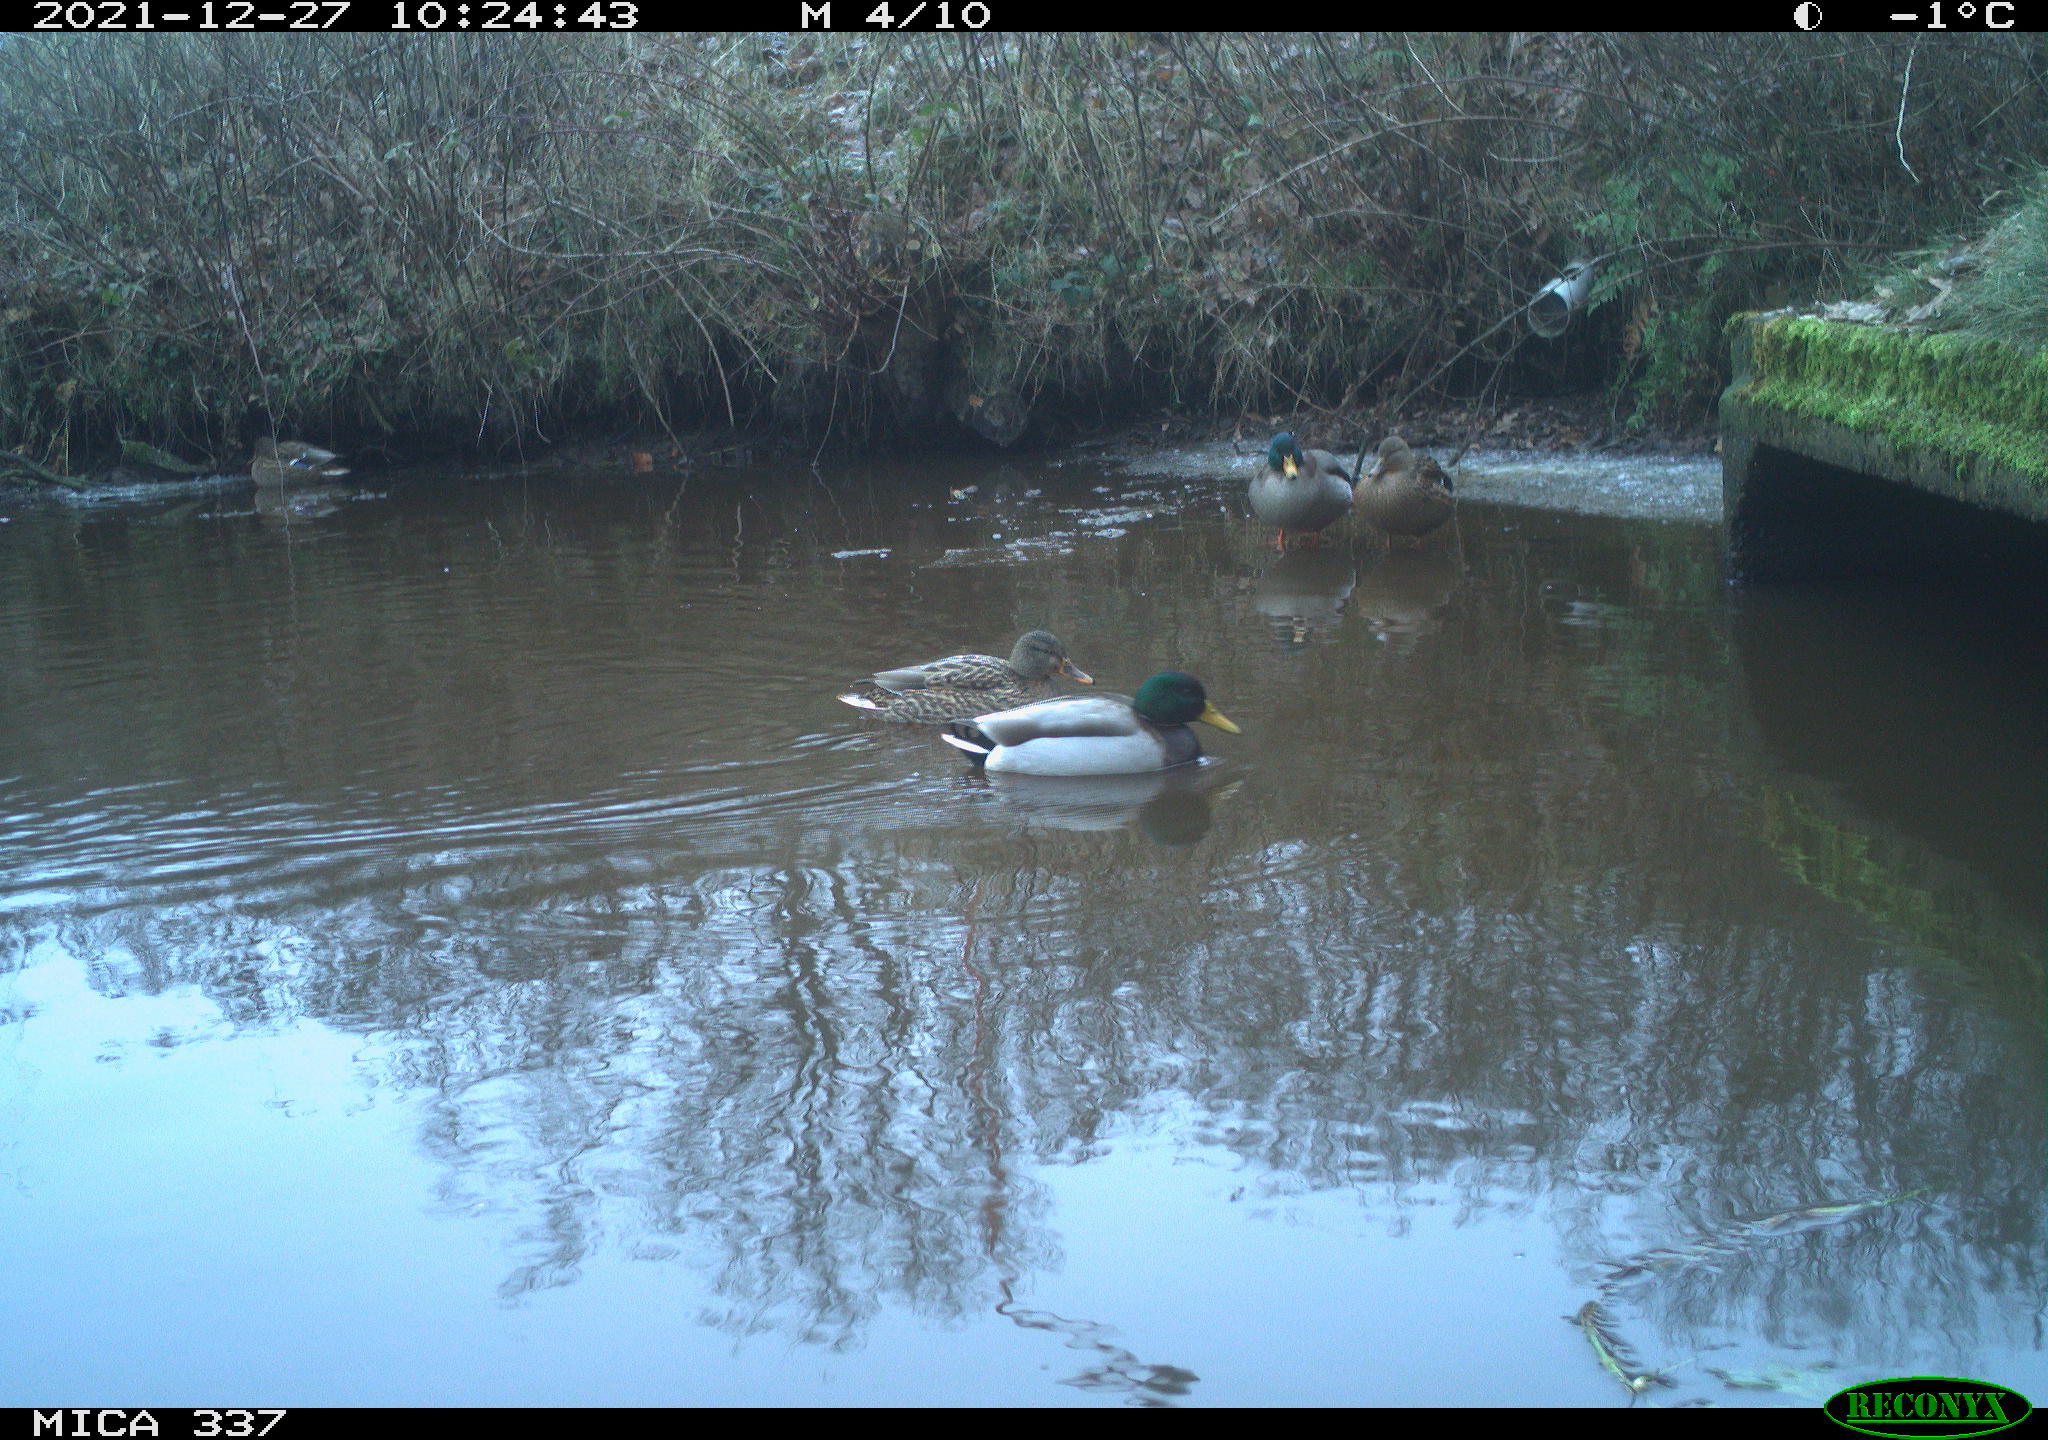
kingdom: Animalia
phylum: Chordata
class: Aves
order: Anseriformes
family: Anatidae
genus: Anas
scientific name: Anas platyrhynchos
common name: Mallard
